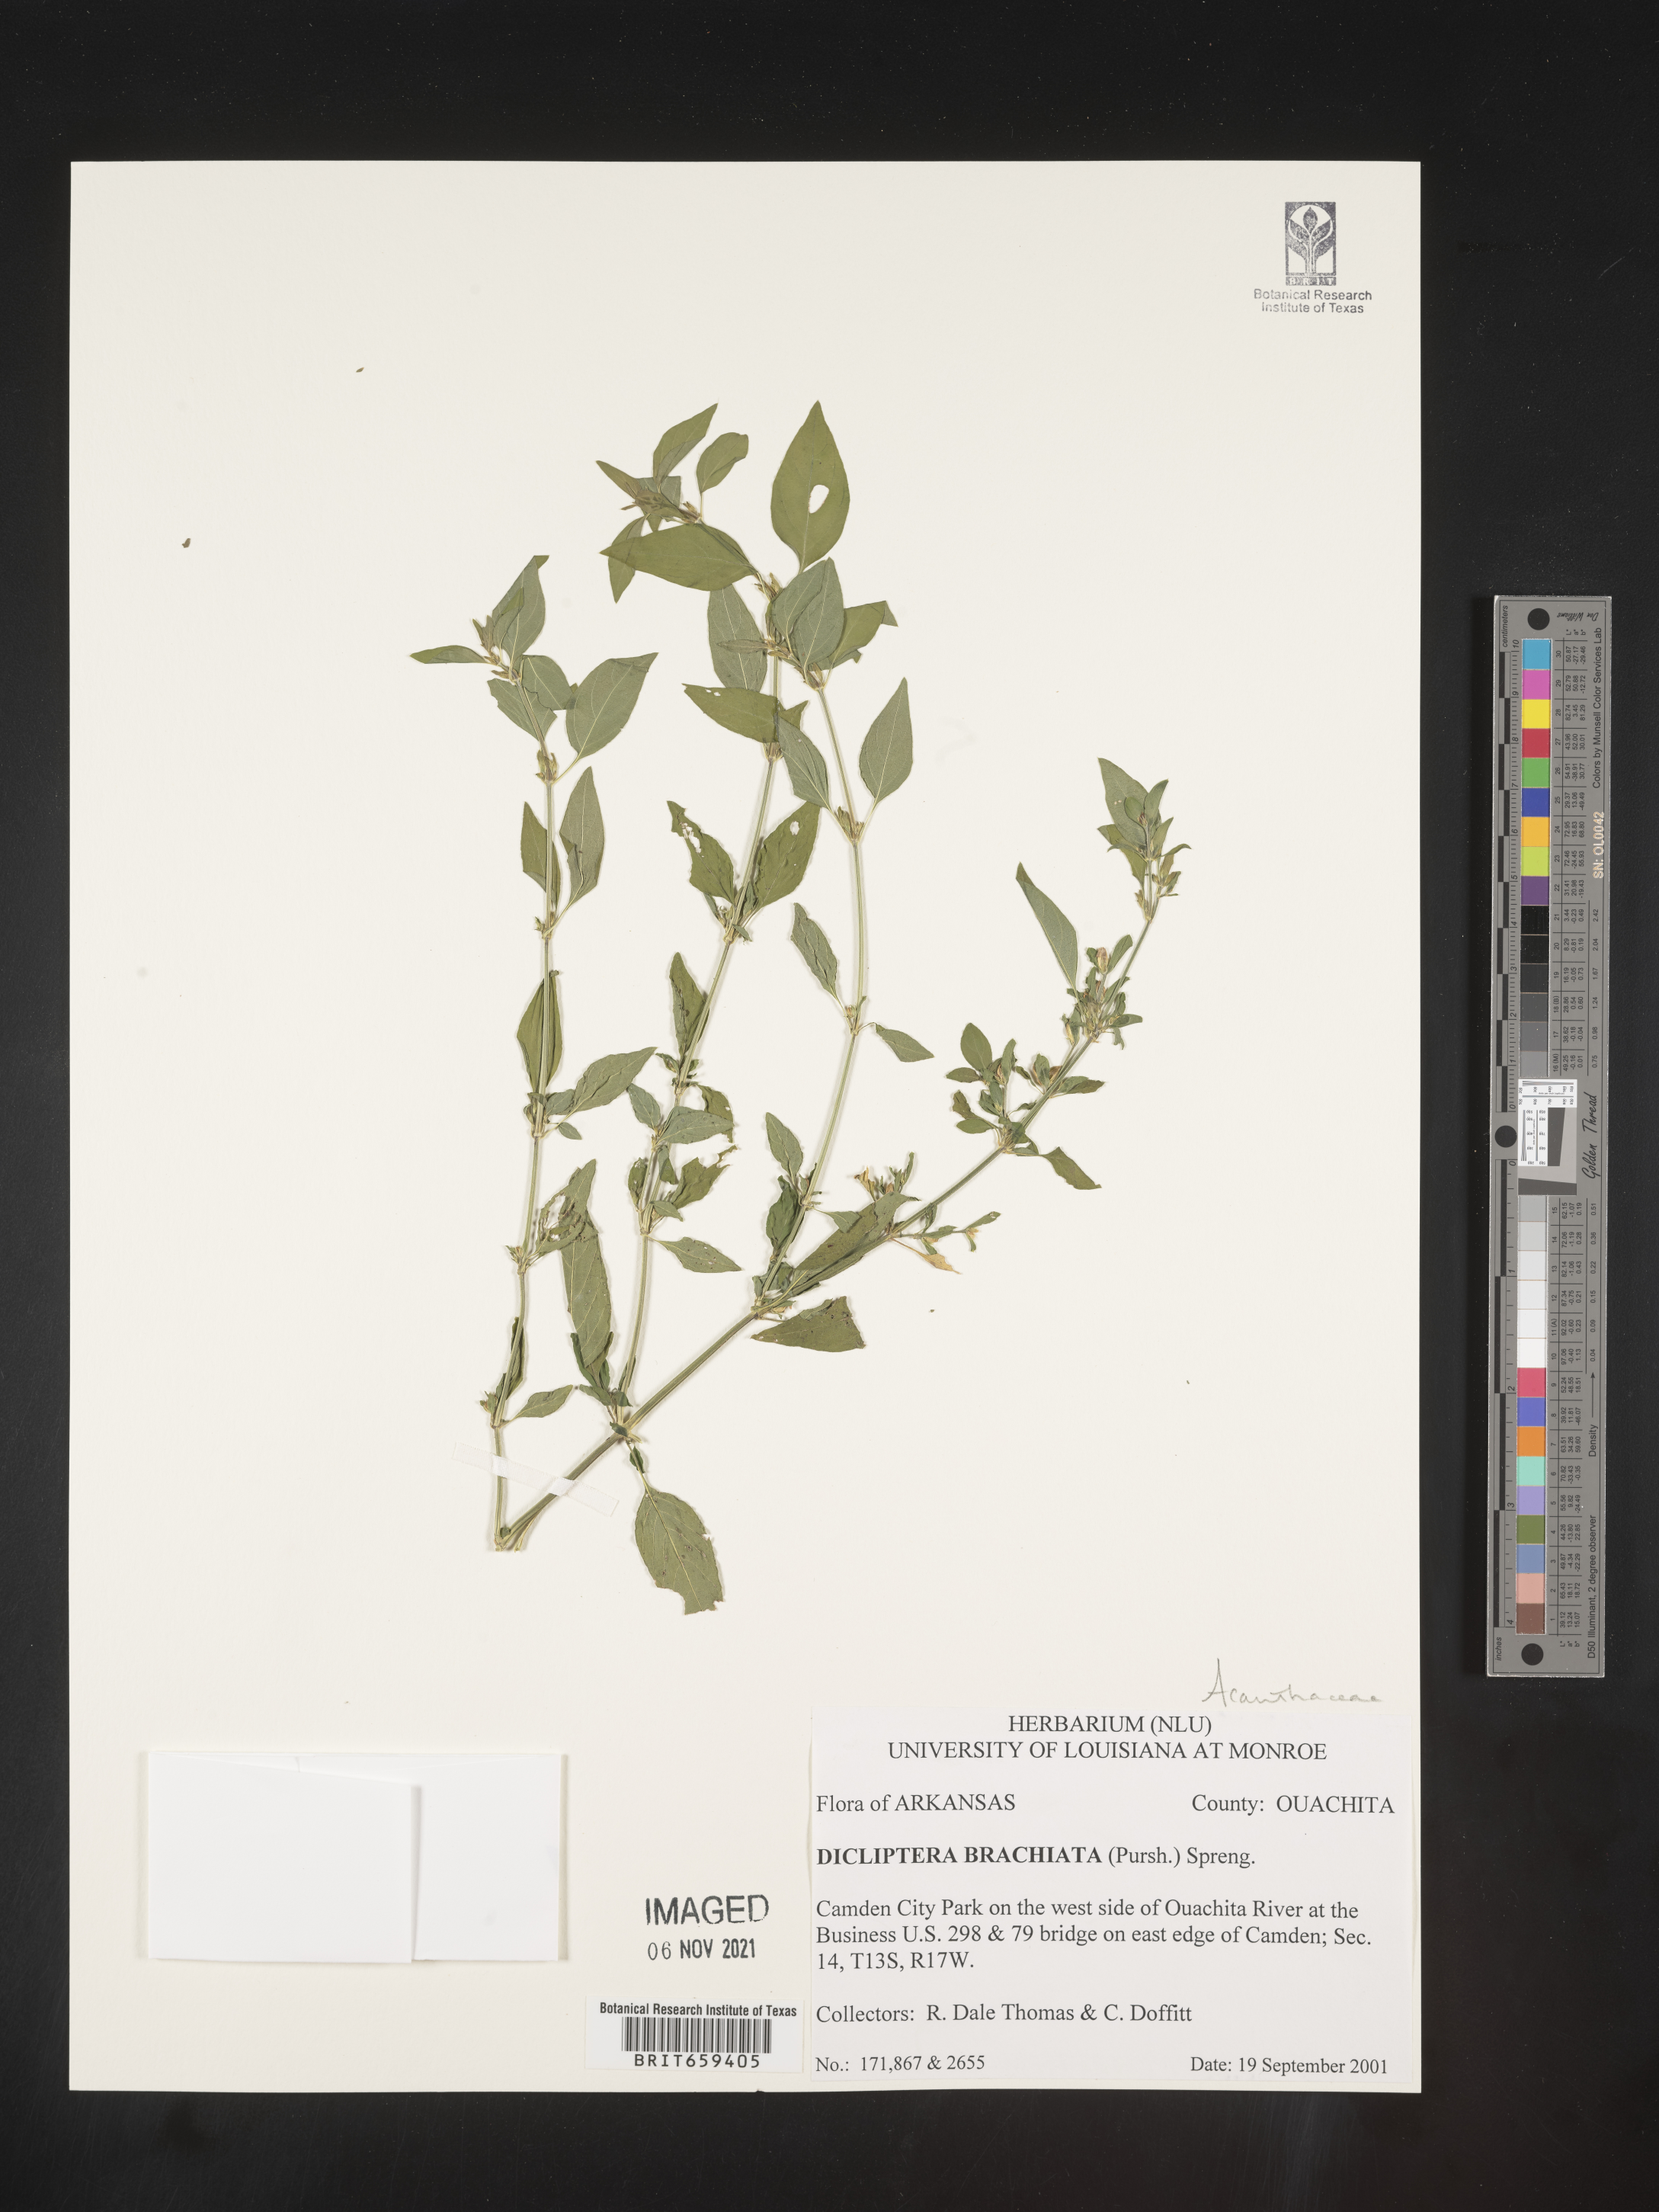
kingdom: Plantae
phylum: Tracheophyta
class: Magnoliopsida
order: Lamiales
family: Acanthaceae
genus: Dicliptera
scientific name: Dicliptera brachiata
